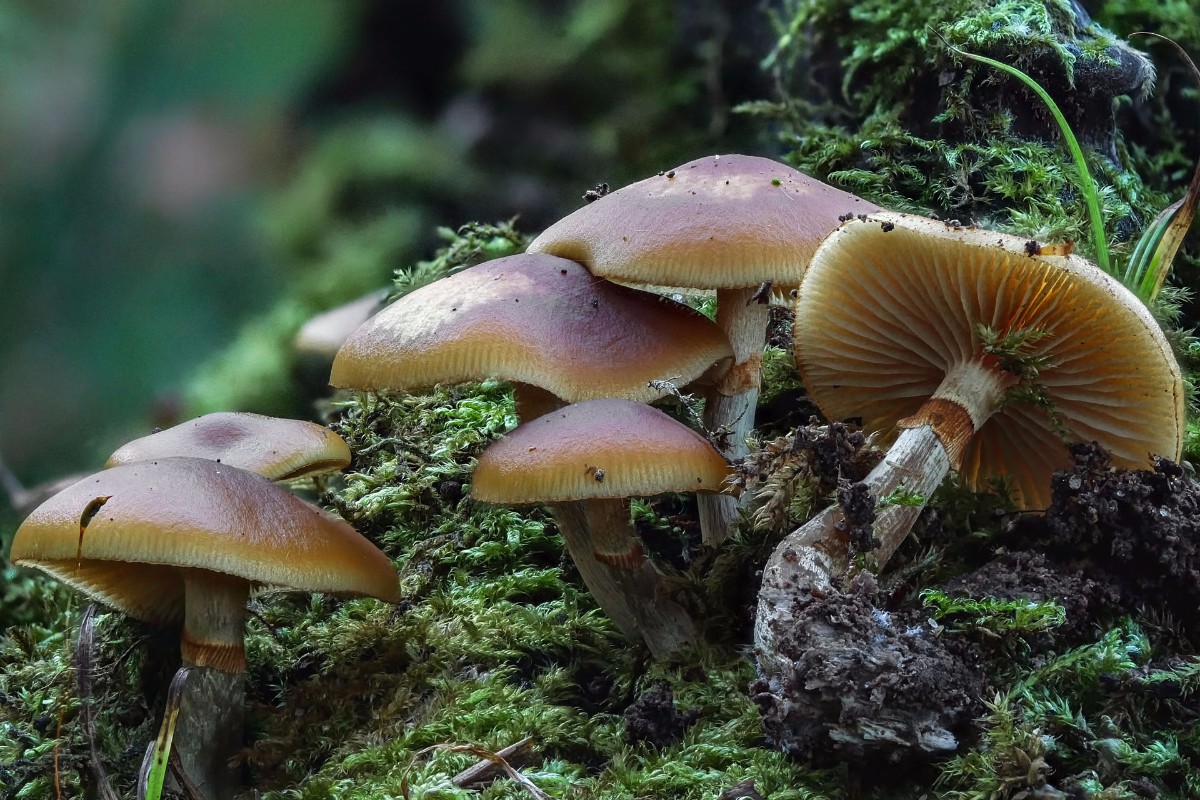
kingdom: Fungi
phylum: Basidiomycota
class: Agaricomycetes
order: Agaricales
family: Hymenogastraceae
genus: Galerina
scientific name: Galerina marginata
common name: randbæltet hjelmhat
